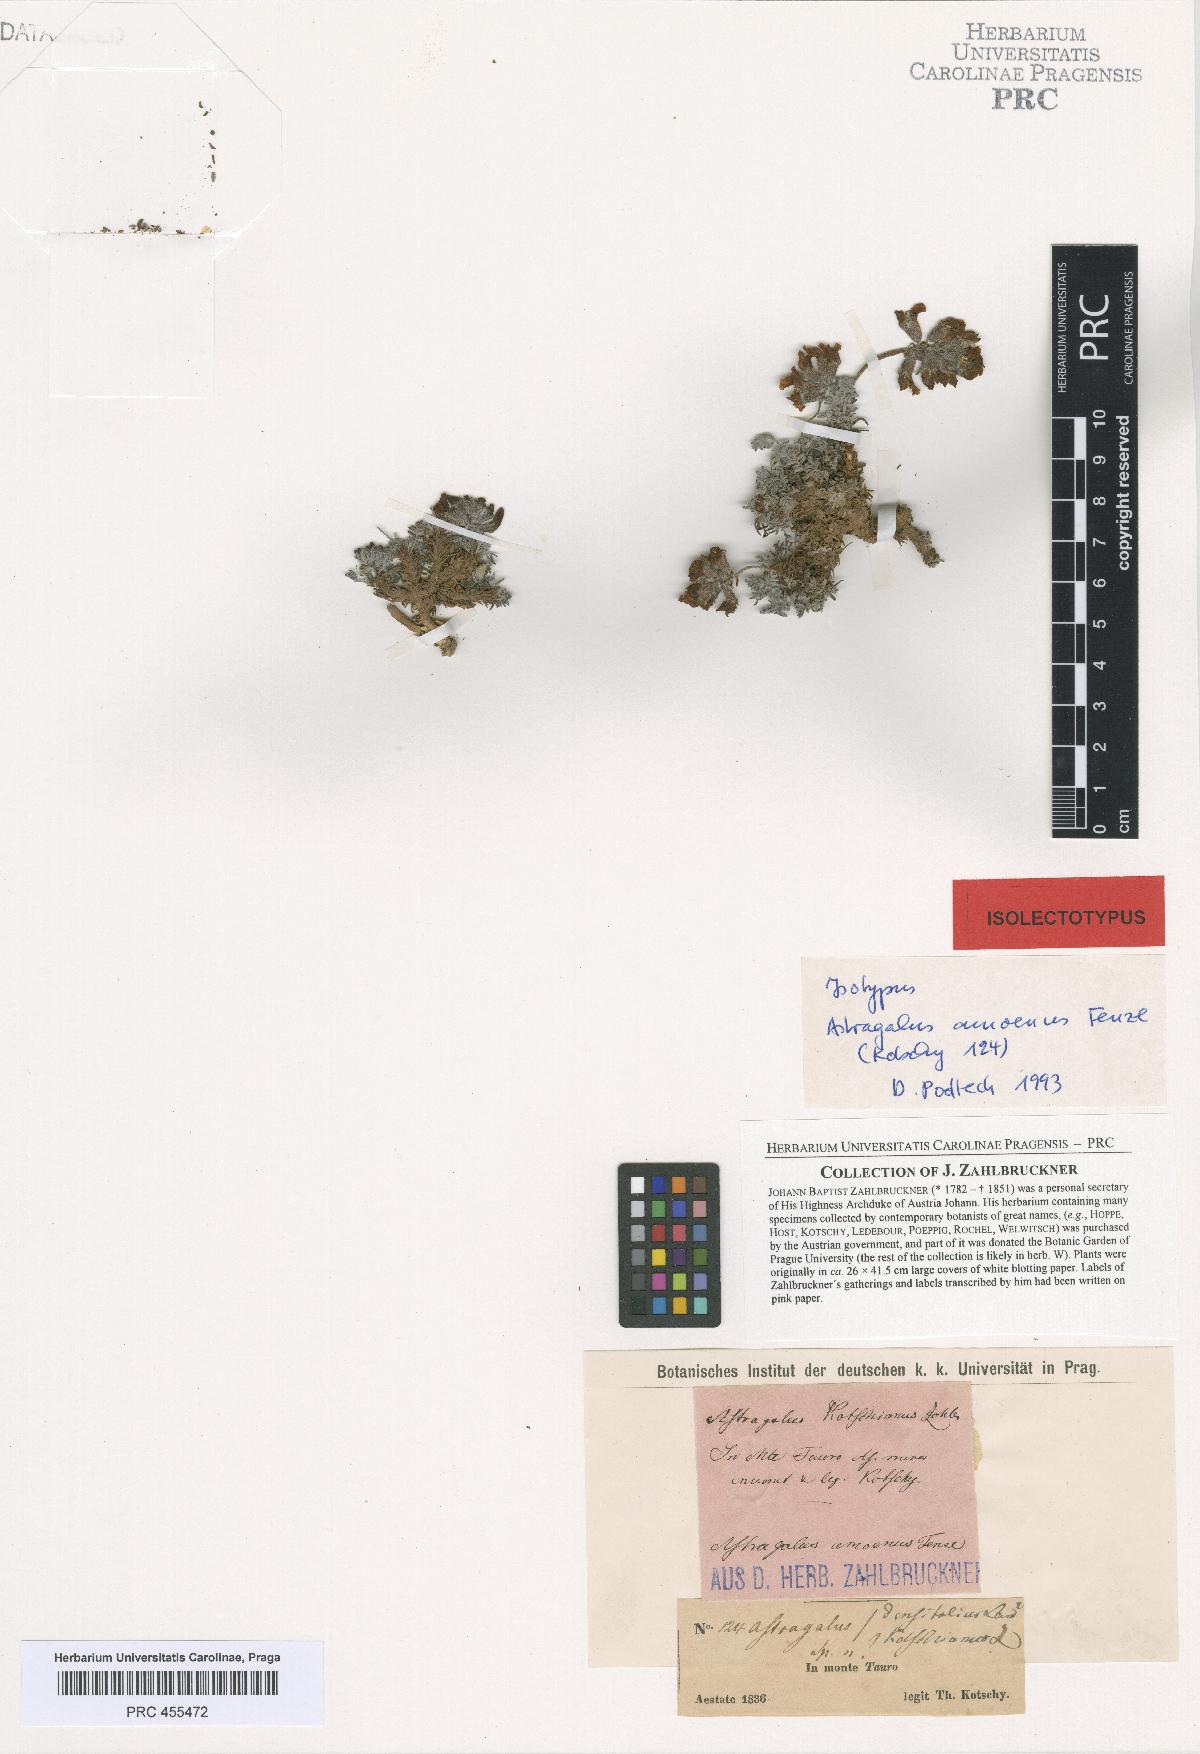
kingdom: Plantae
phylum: Tracheophyta
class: Magnoliopsida
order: Fabales
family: Fabaceae
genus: Astragalus
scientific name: Astragalus amoenus
